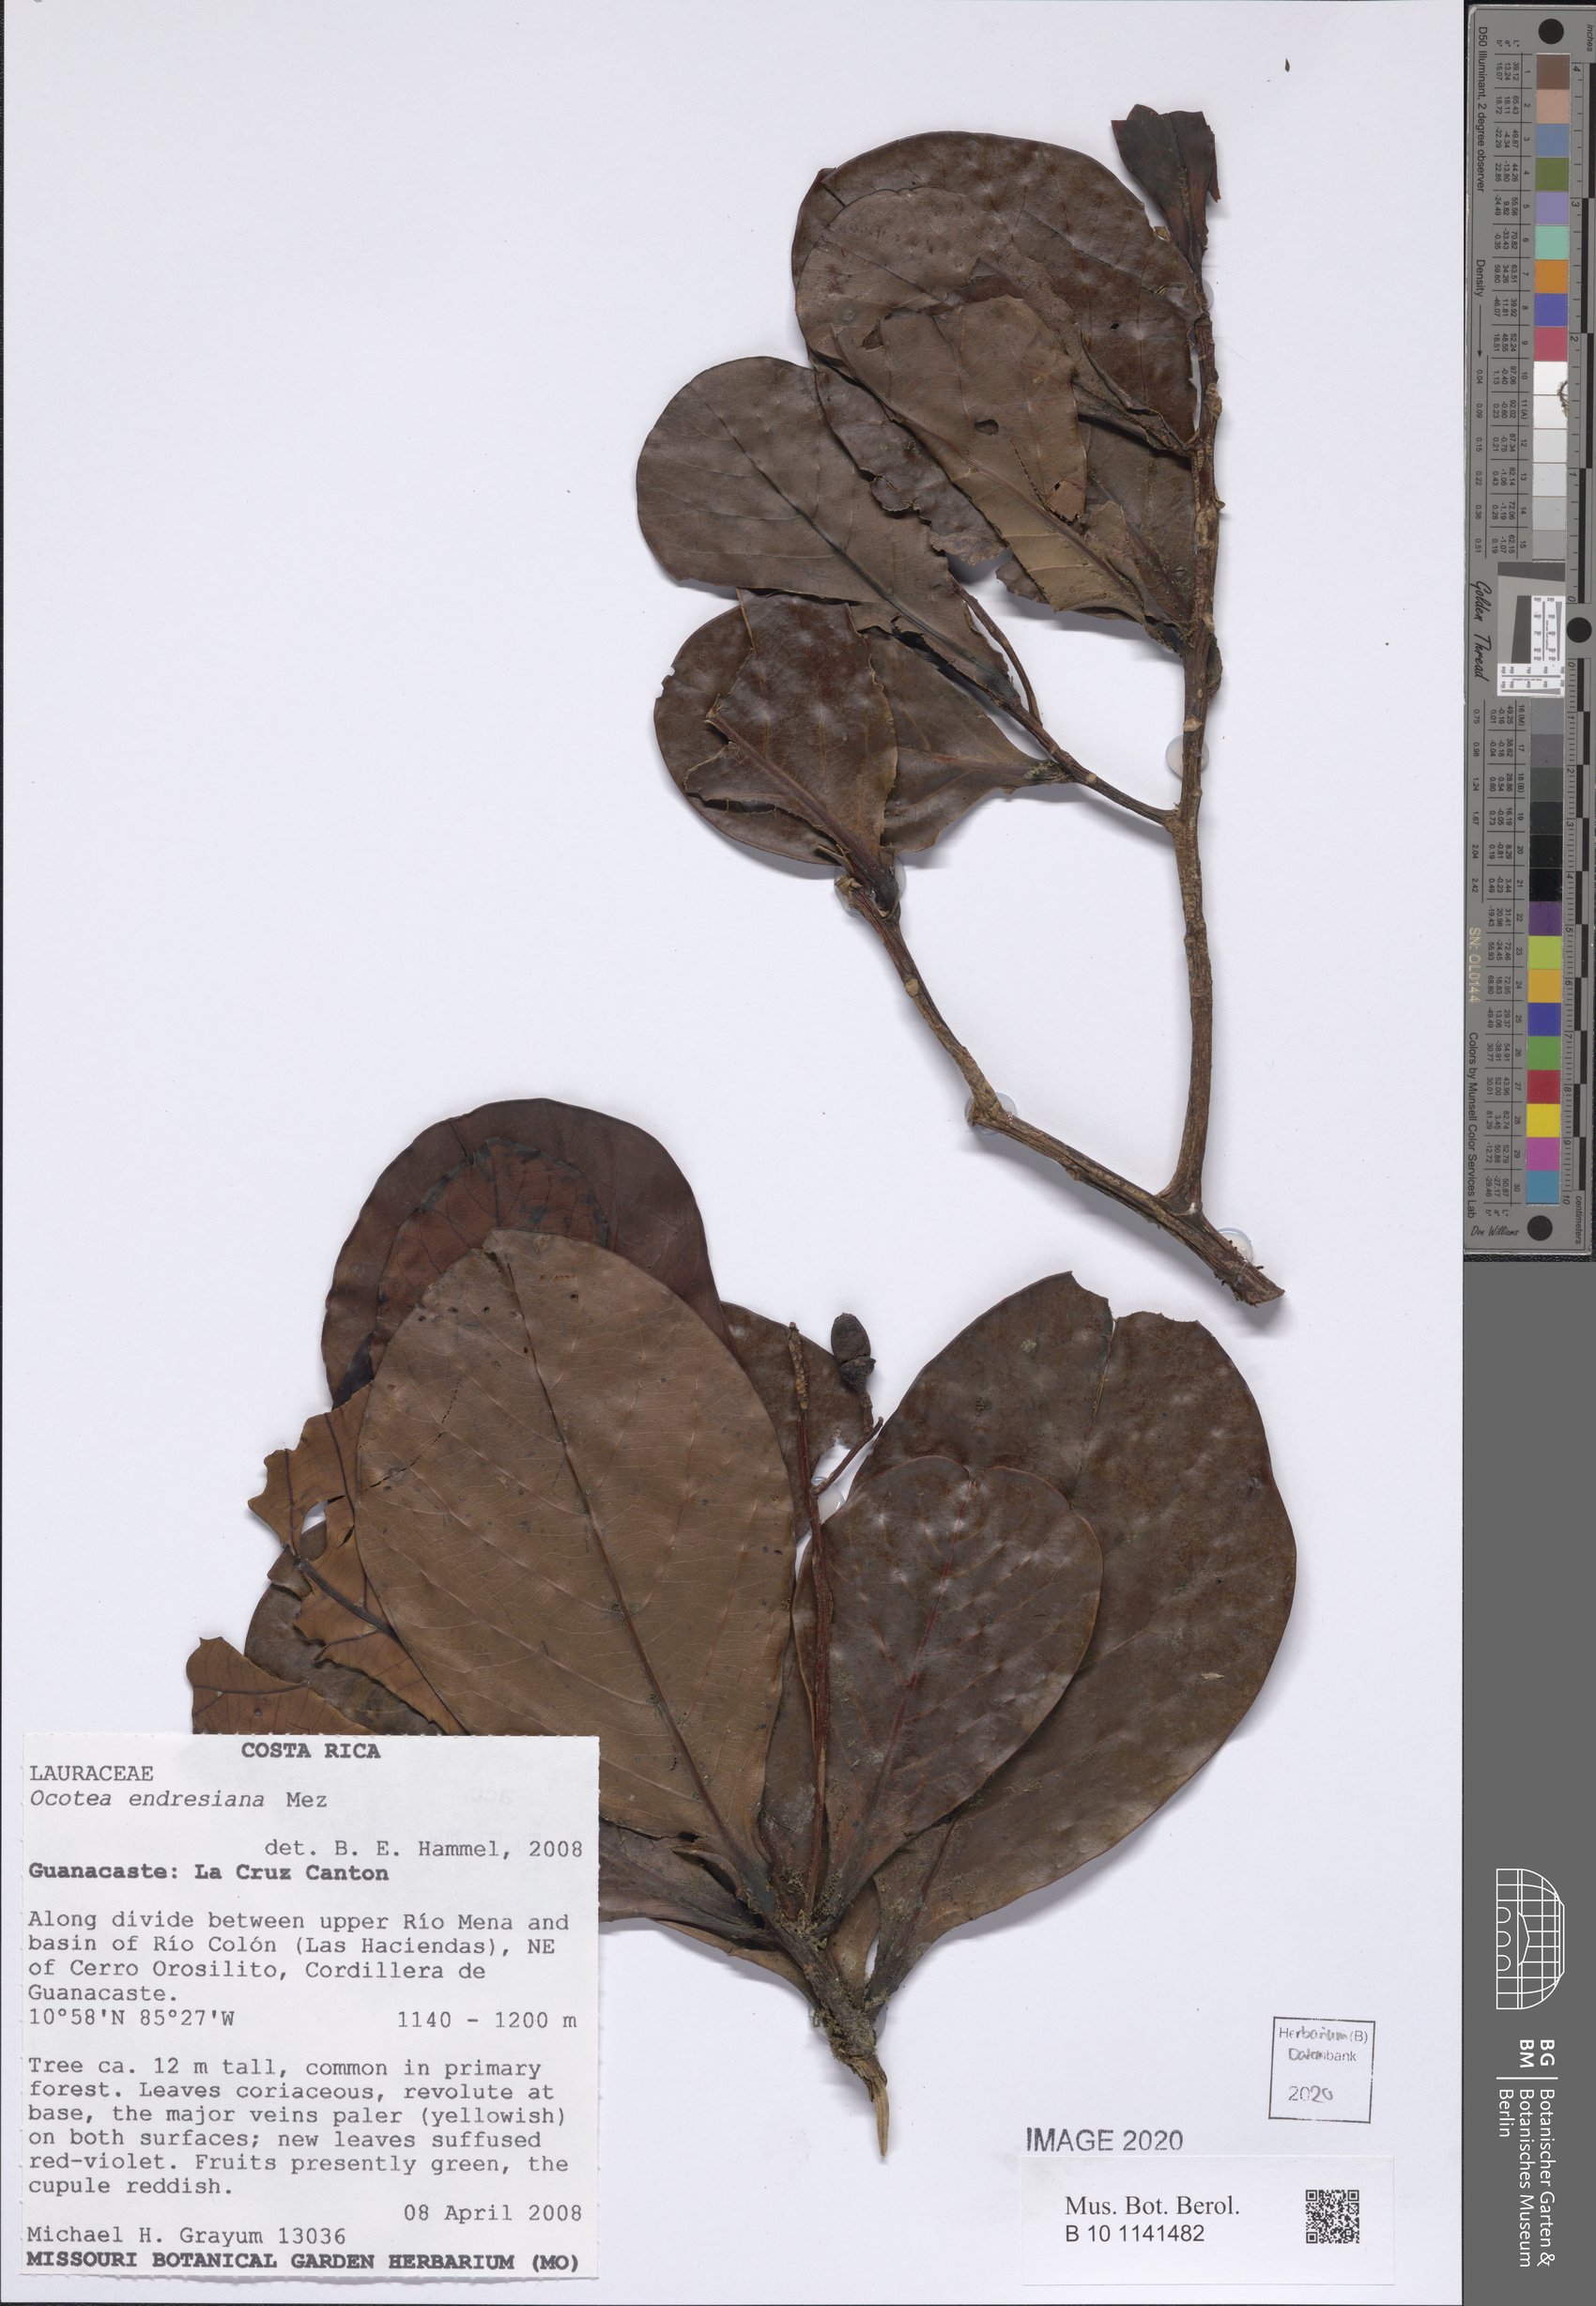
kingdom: Plantae
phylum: Tracheophyta
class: Magnoliopsida
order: Laurales
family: Lauraceae
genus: Ocotea
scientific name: Ocotea endresiana
